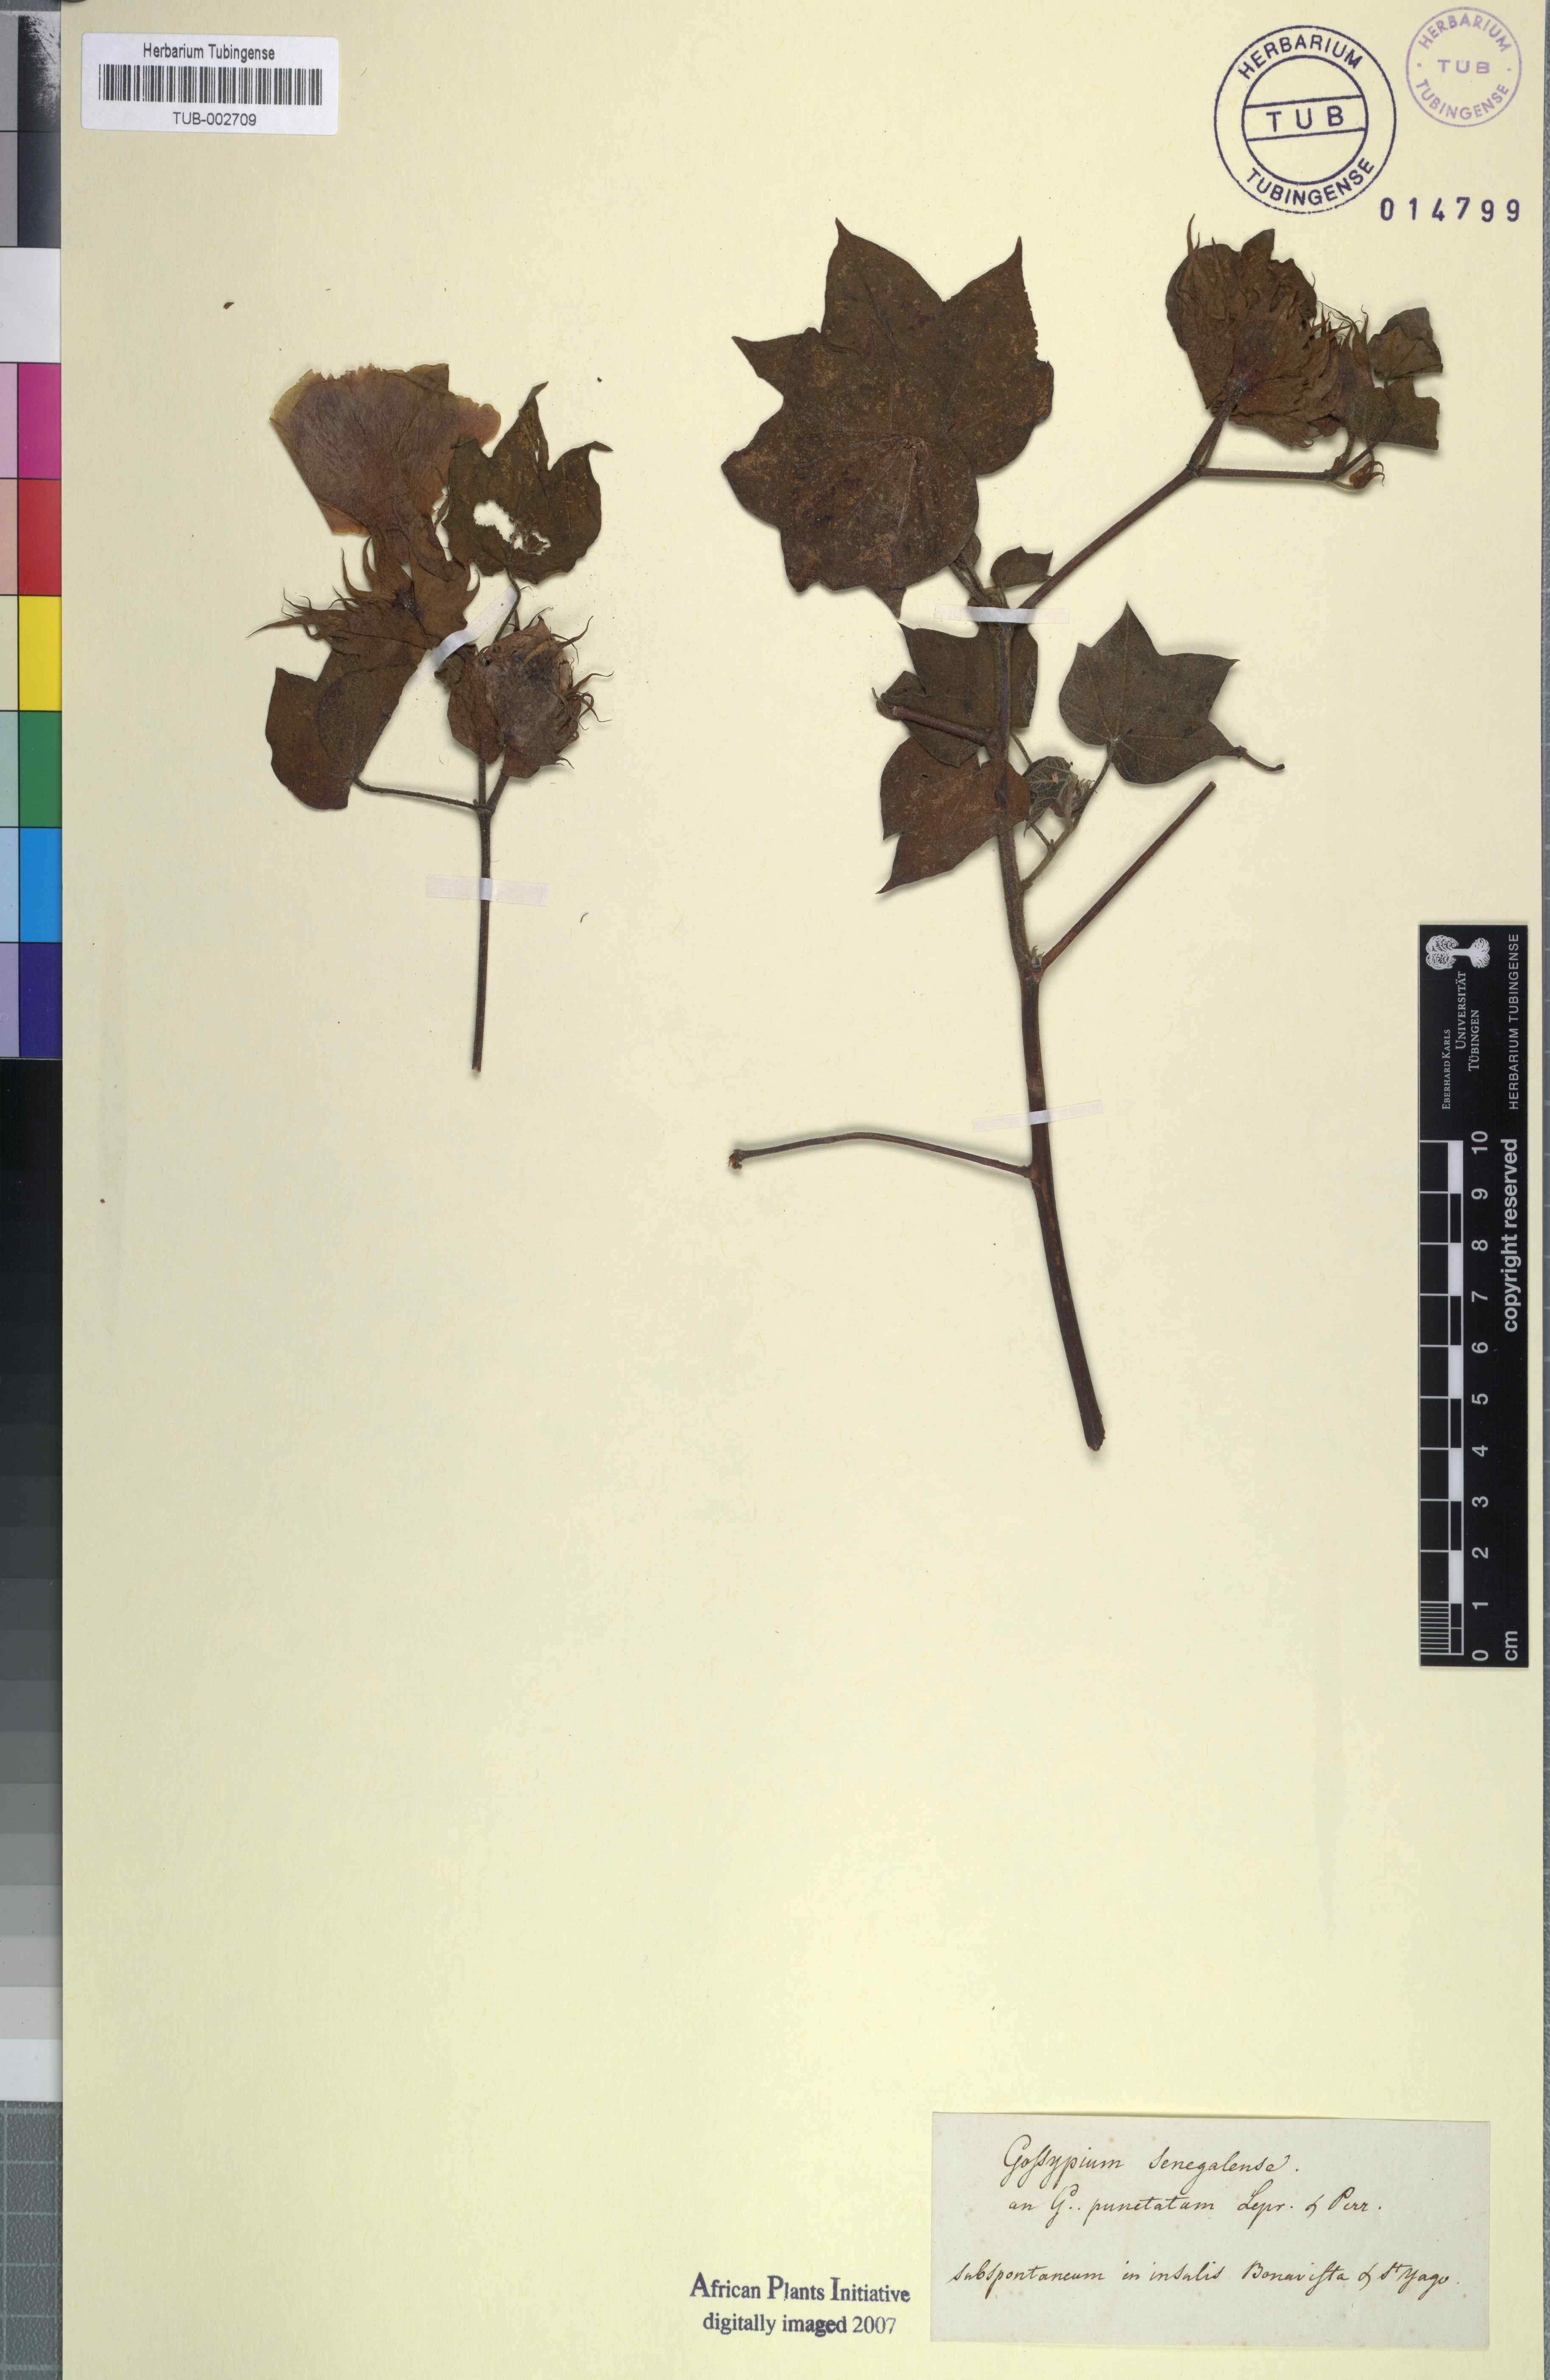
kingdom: Plantae
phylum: Tracheophyta
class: Magnoliopsida
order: Malvales
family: Malvaceae
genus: Gossypium
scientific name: Gossypium herbaceum
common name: Levant cotton
